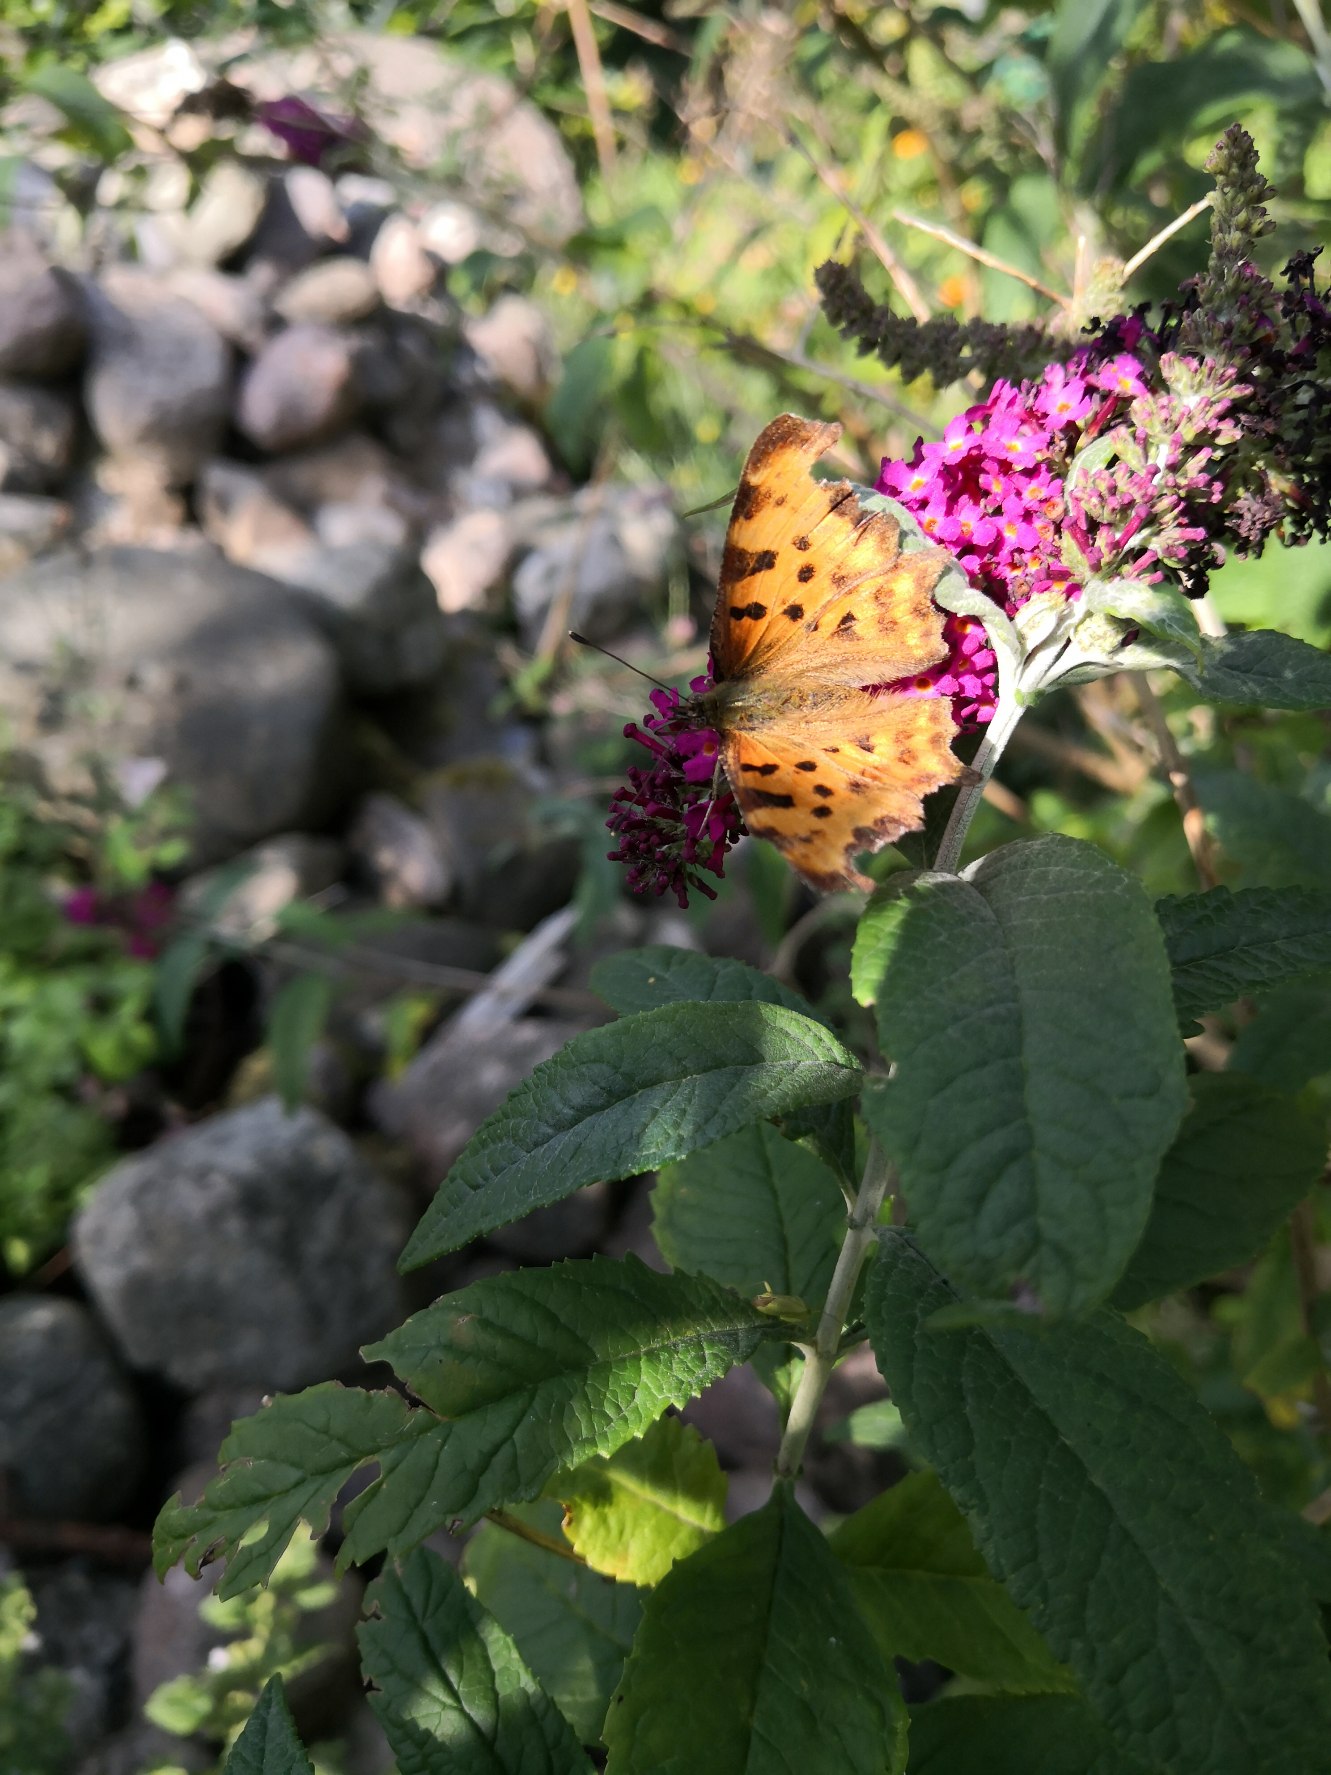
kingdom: Animalia
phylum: Arthropoda
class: Insecta
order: Lepidoptera
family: Nymphalidae
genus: Polygonia
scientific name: Polygonia c-album
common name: Det hvide C
